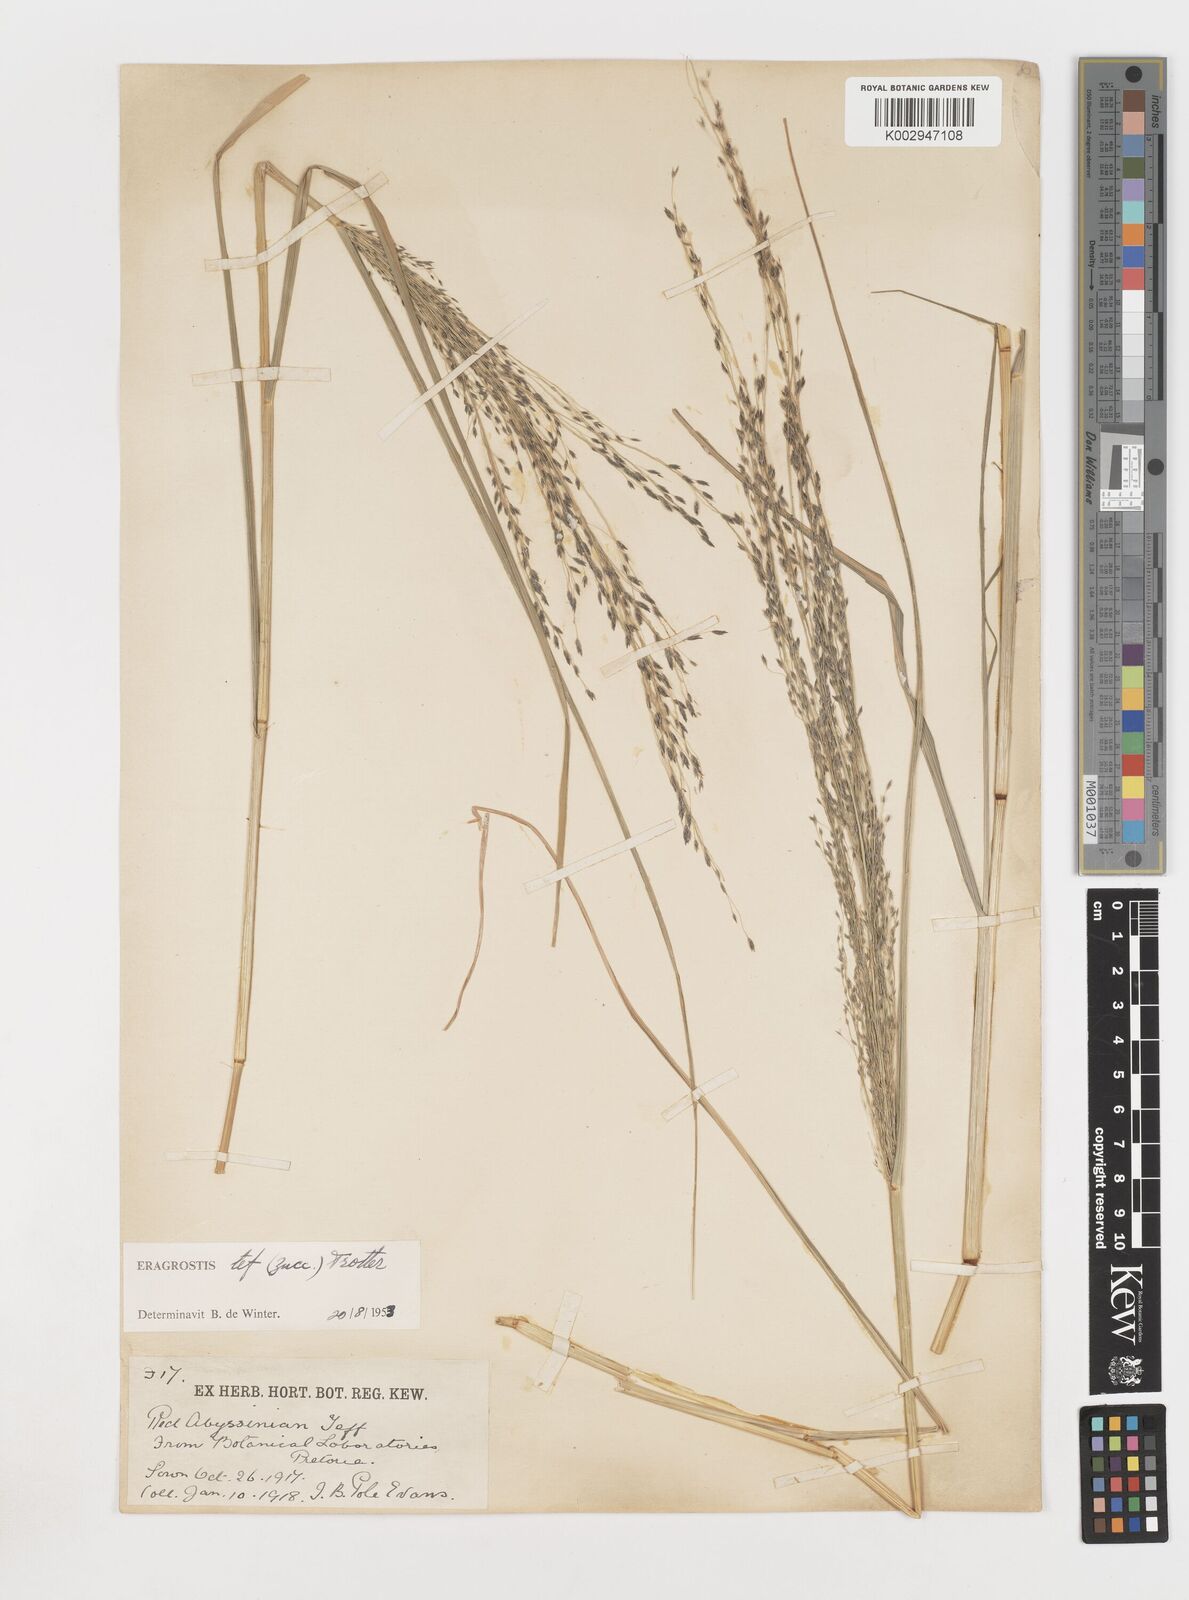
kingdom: Plantae
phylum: Tracheophyta
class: Liliopsida
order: Poales
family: Poaceae
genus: Eragrostis
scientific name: Eragrostis tef
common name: Teff
